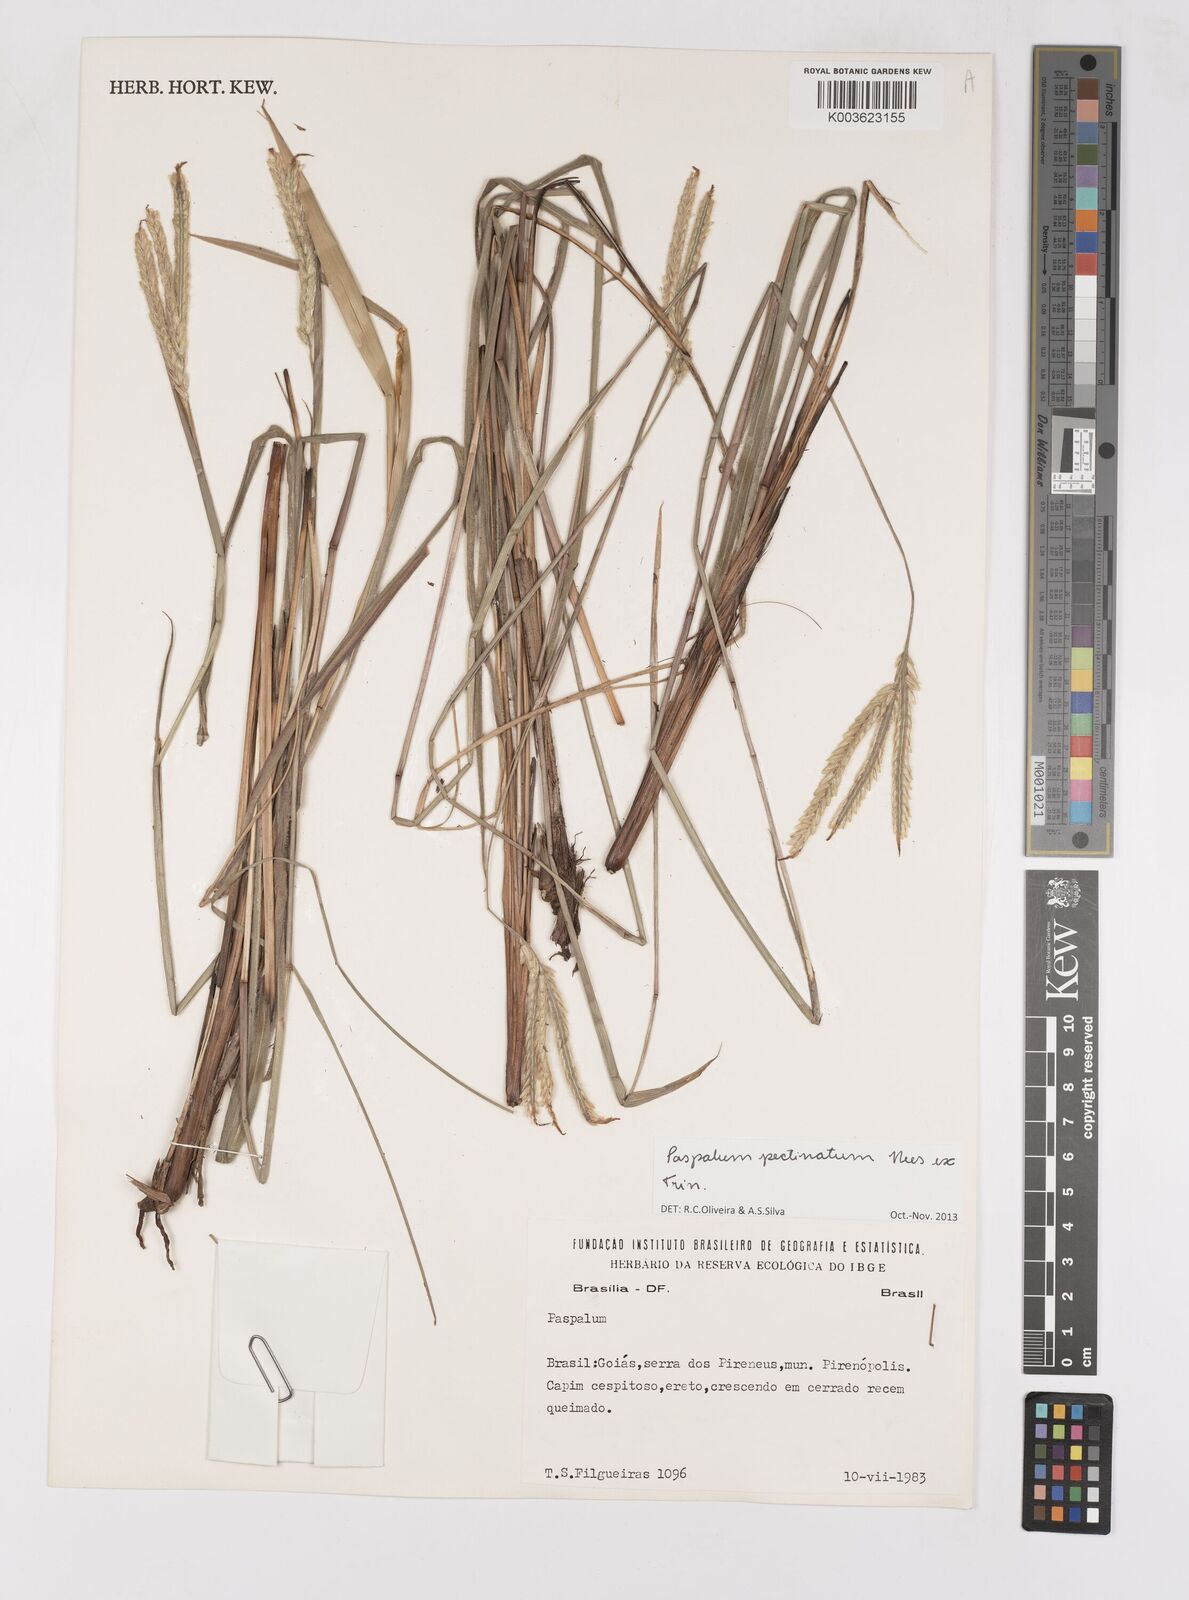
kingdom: Plantae
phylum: Tracheophyta
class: Liliopsida
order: Poales
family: Poaceae
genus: Paspalum
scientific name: Paspalum pectinatum
